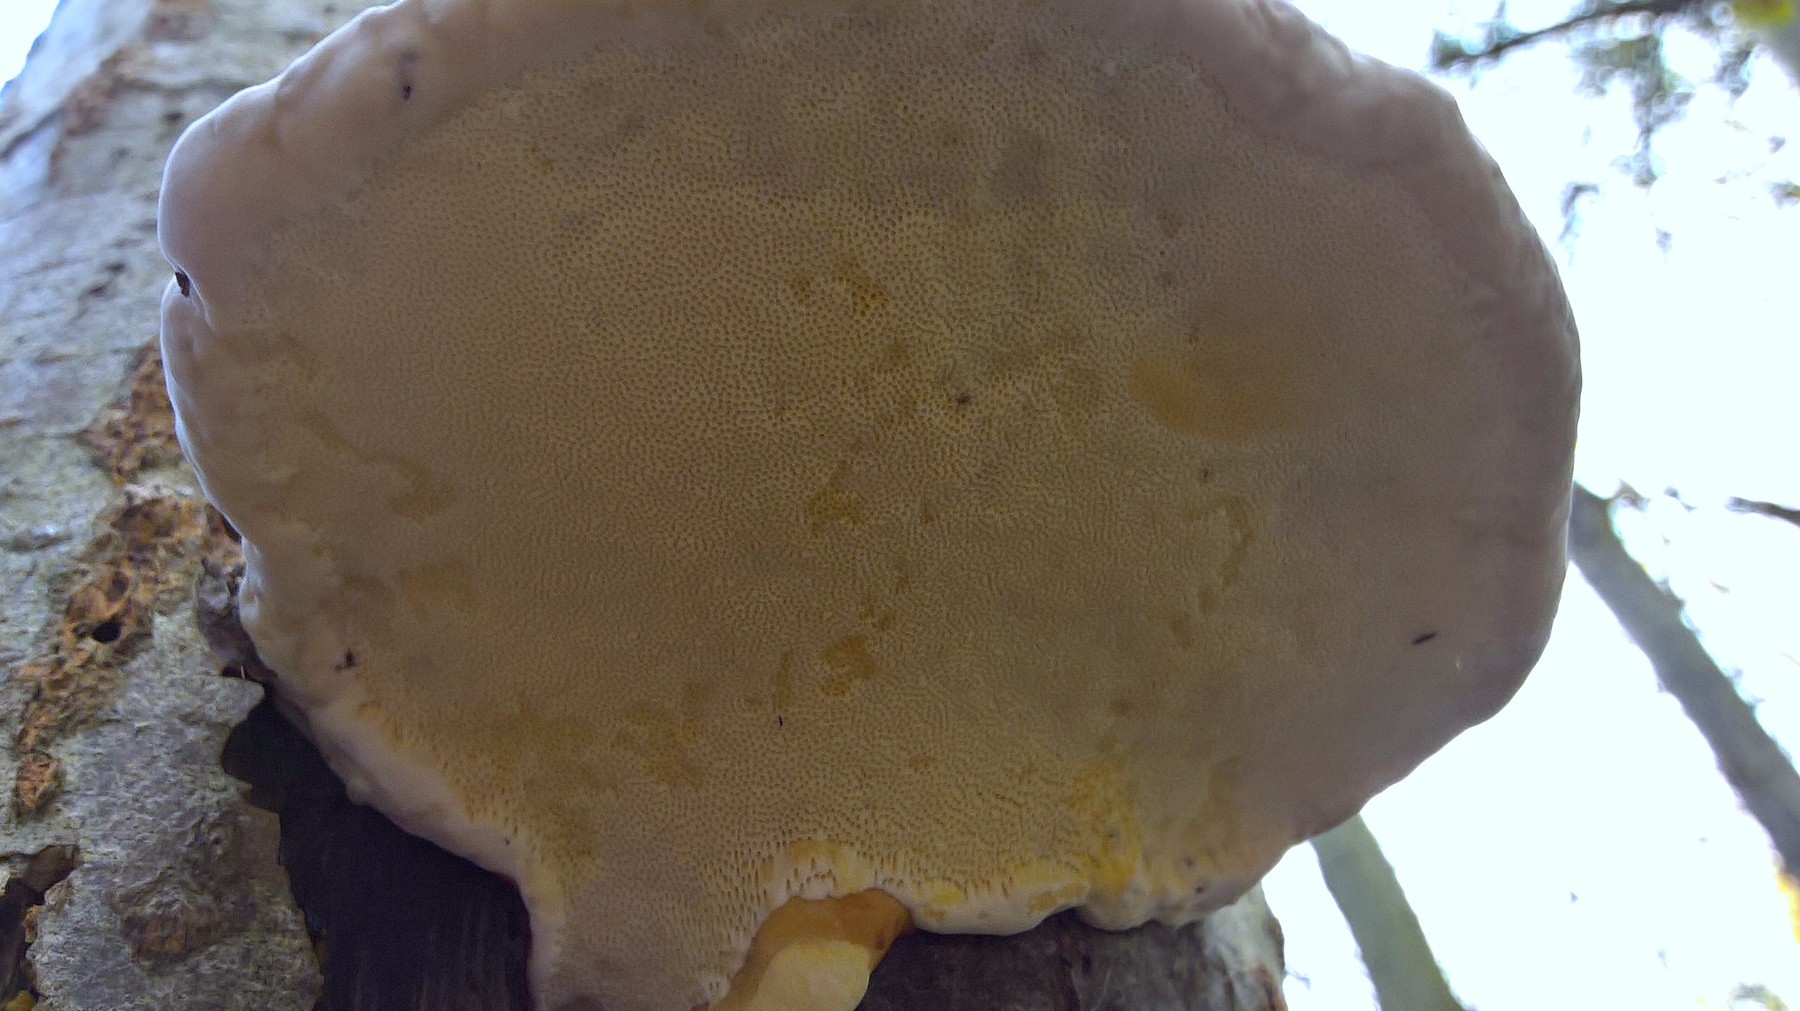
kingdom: Fungi
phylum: Basidiomycota
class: Agaricomycetes
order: Polyporales
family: Fomitopsidaceae
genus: Fomitopsis
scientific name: Fomitopsis pinicola
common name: randbæltet hovporesvamp
